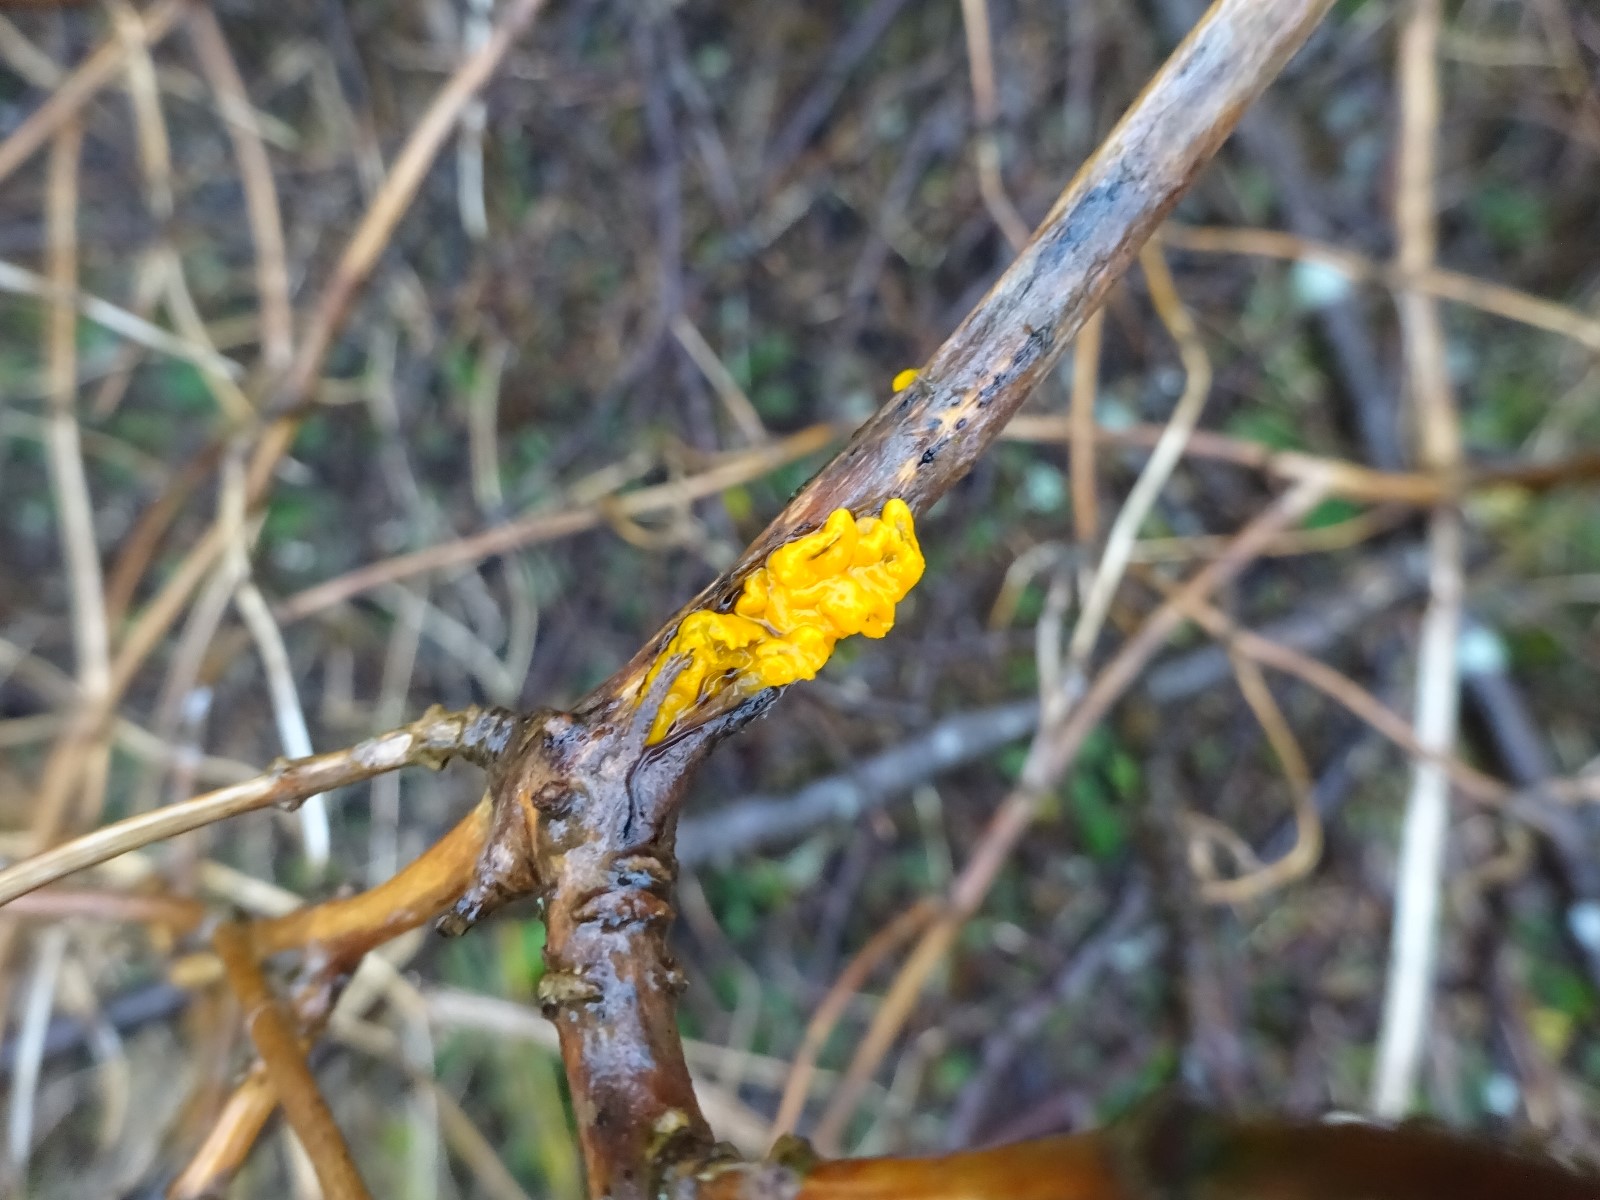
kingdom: Fungi
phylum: Basidiomycota
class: Tremellomycetes
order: Tremellales
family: Tremellaceae
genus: Tremella
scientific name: Tremella mesenterica
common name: gul bævresvamp
